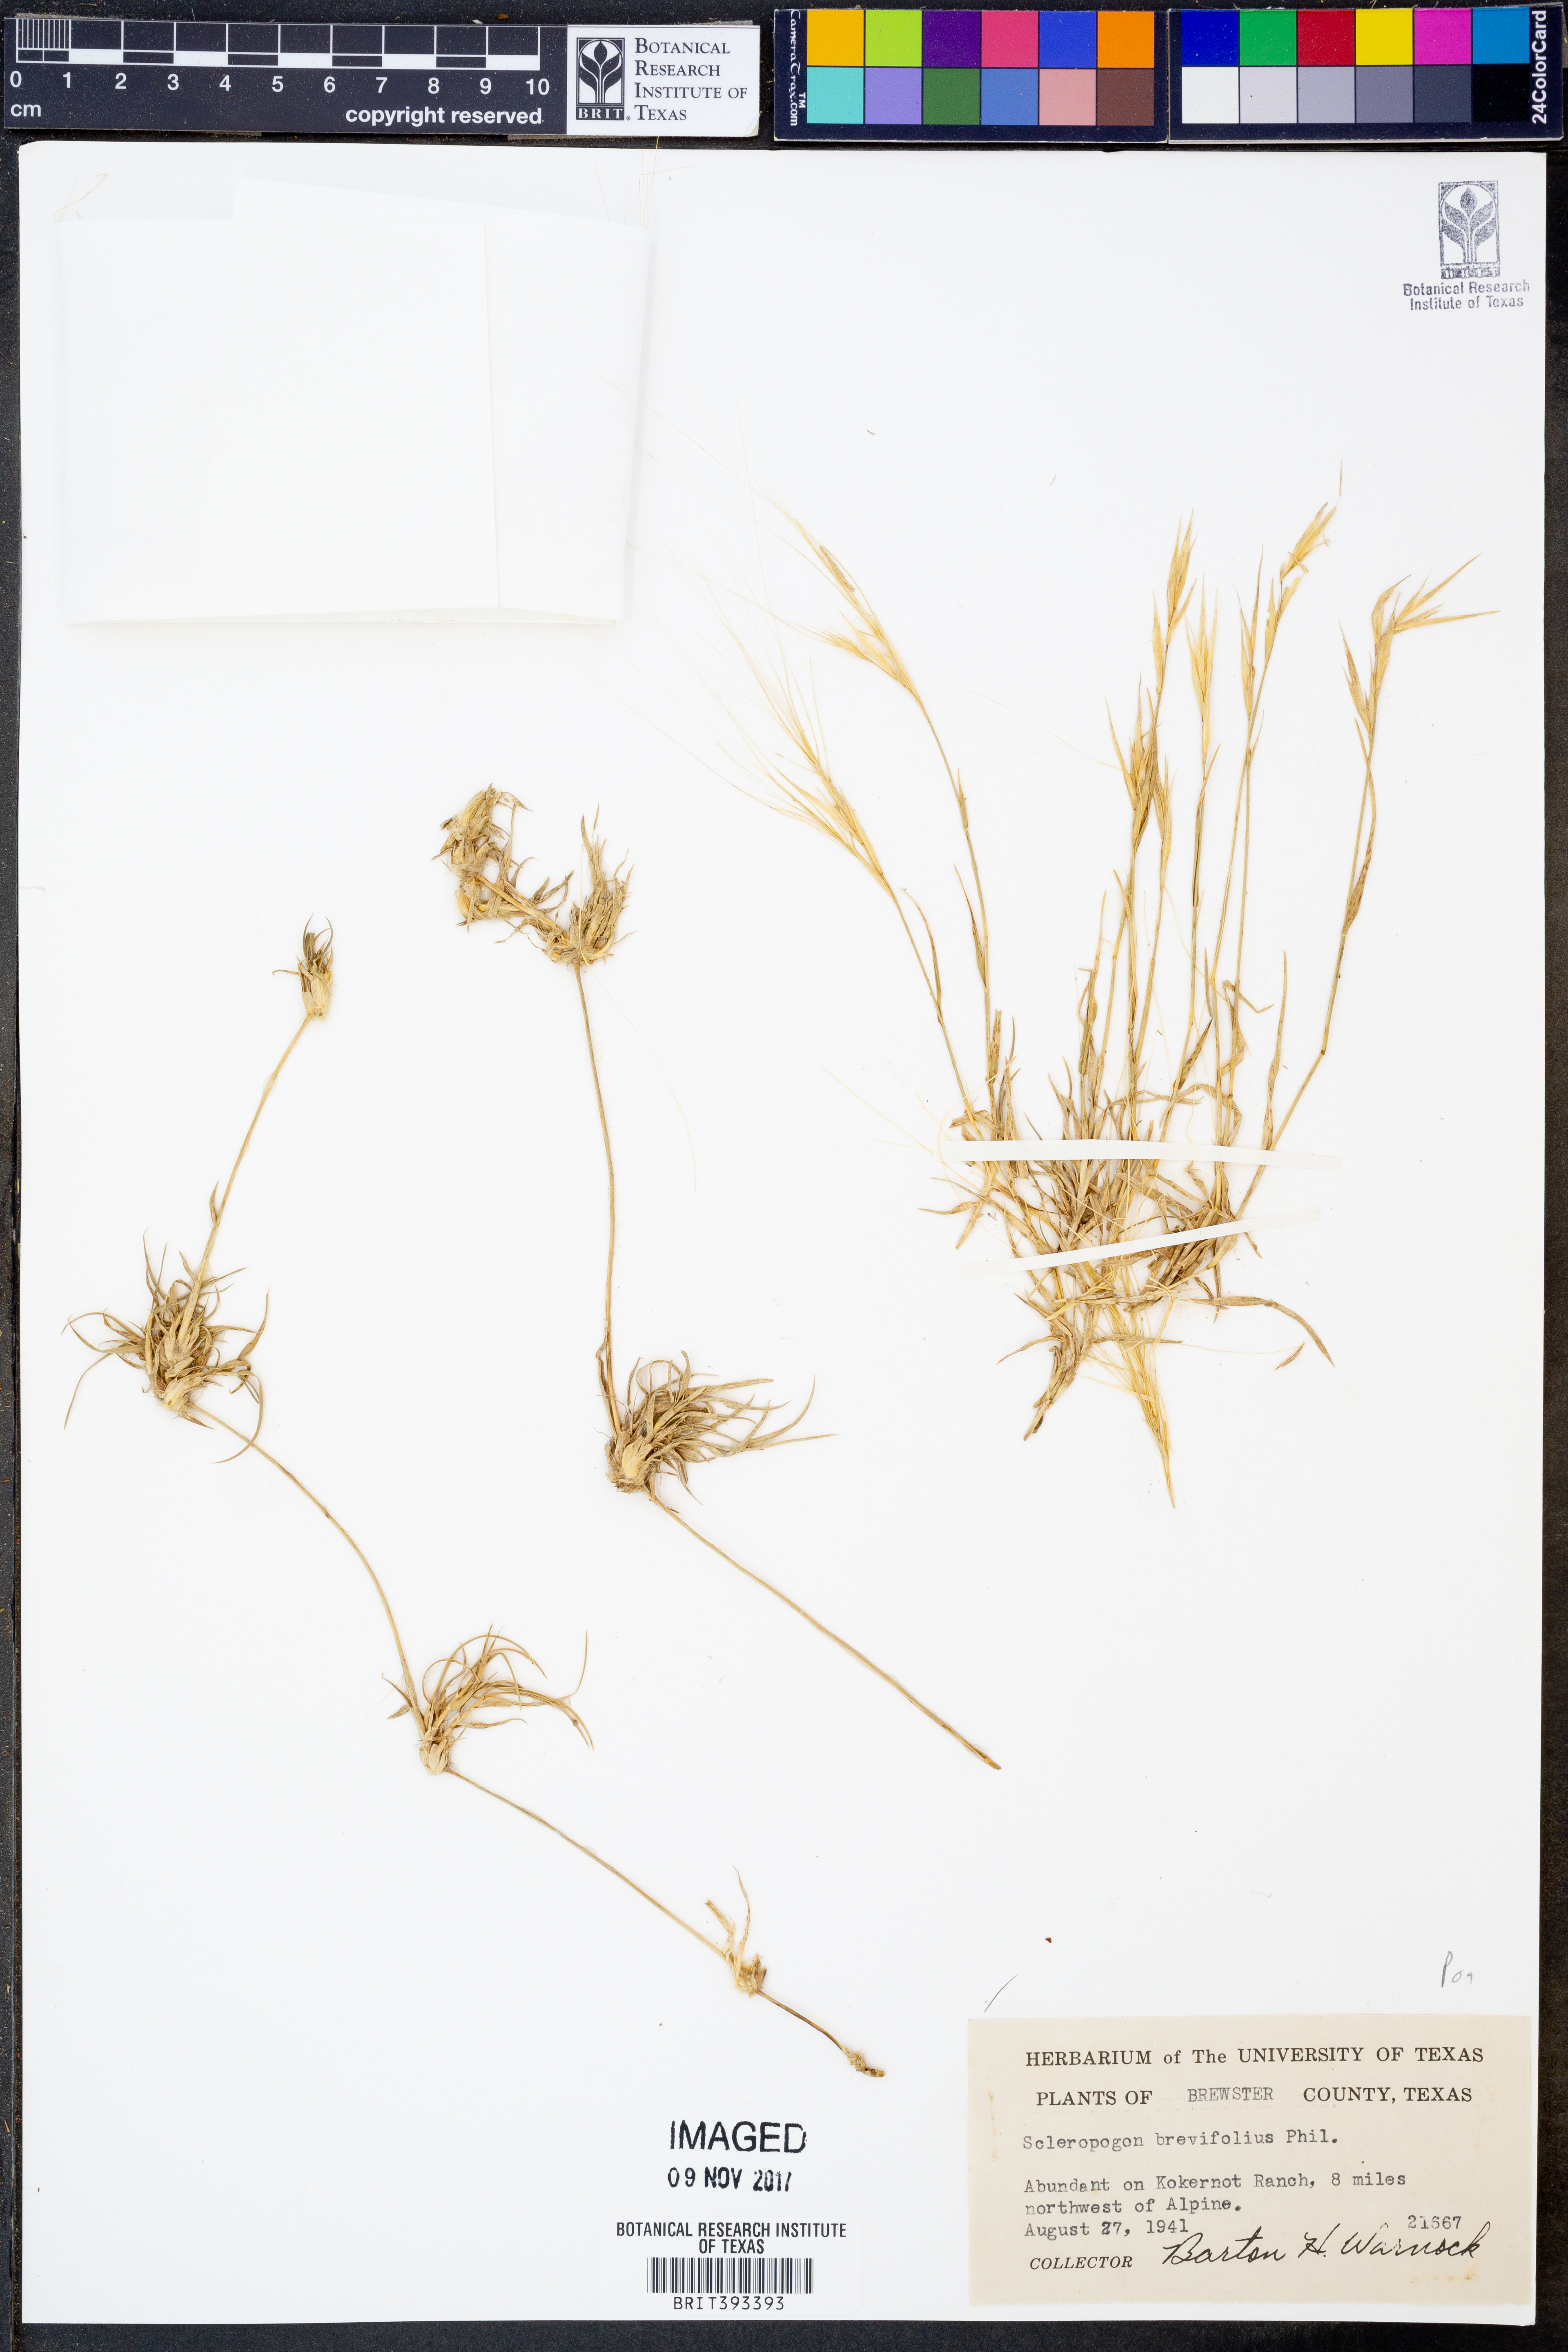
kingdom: Plantae
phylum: Tracheophyta
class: Liliopsida
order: Poales
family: Poaceae
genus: Scleropogon
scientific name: Scleropogon brevifolius
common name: Burro grass
